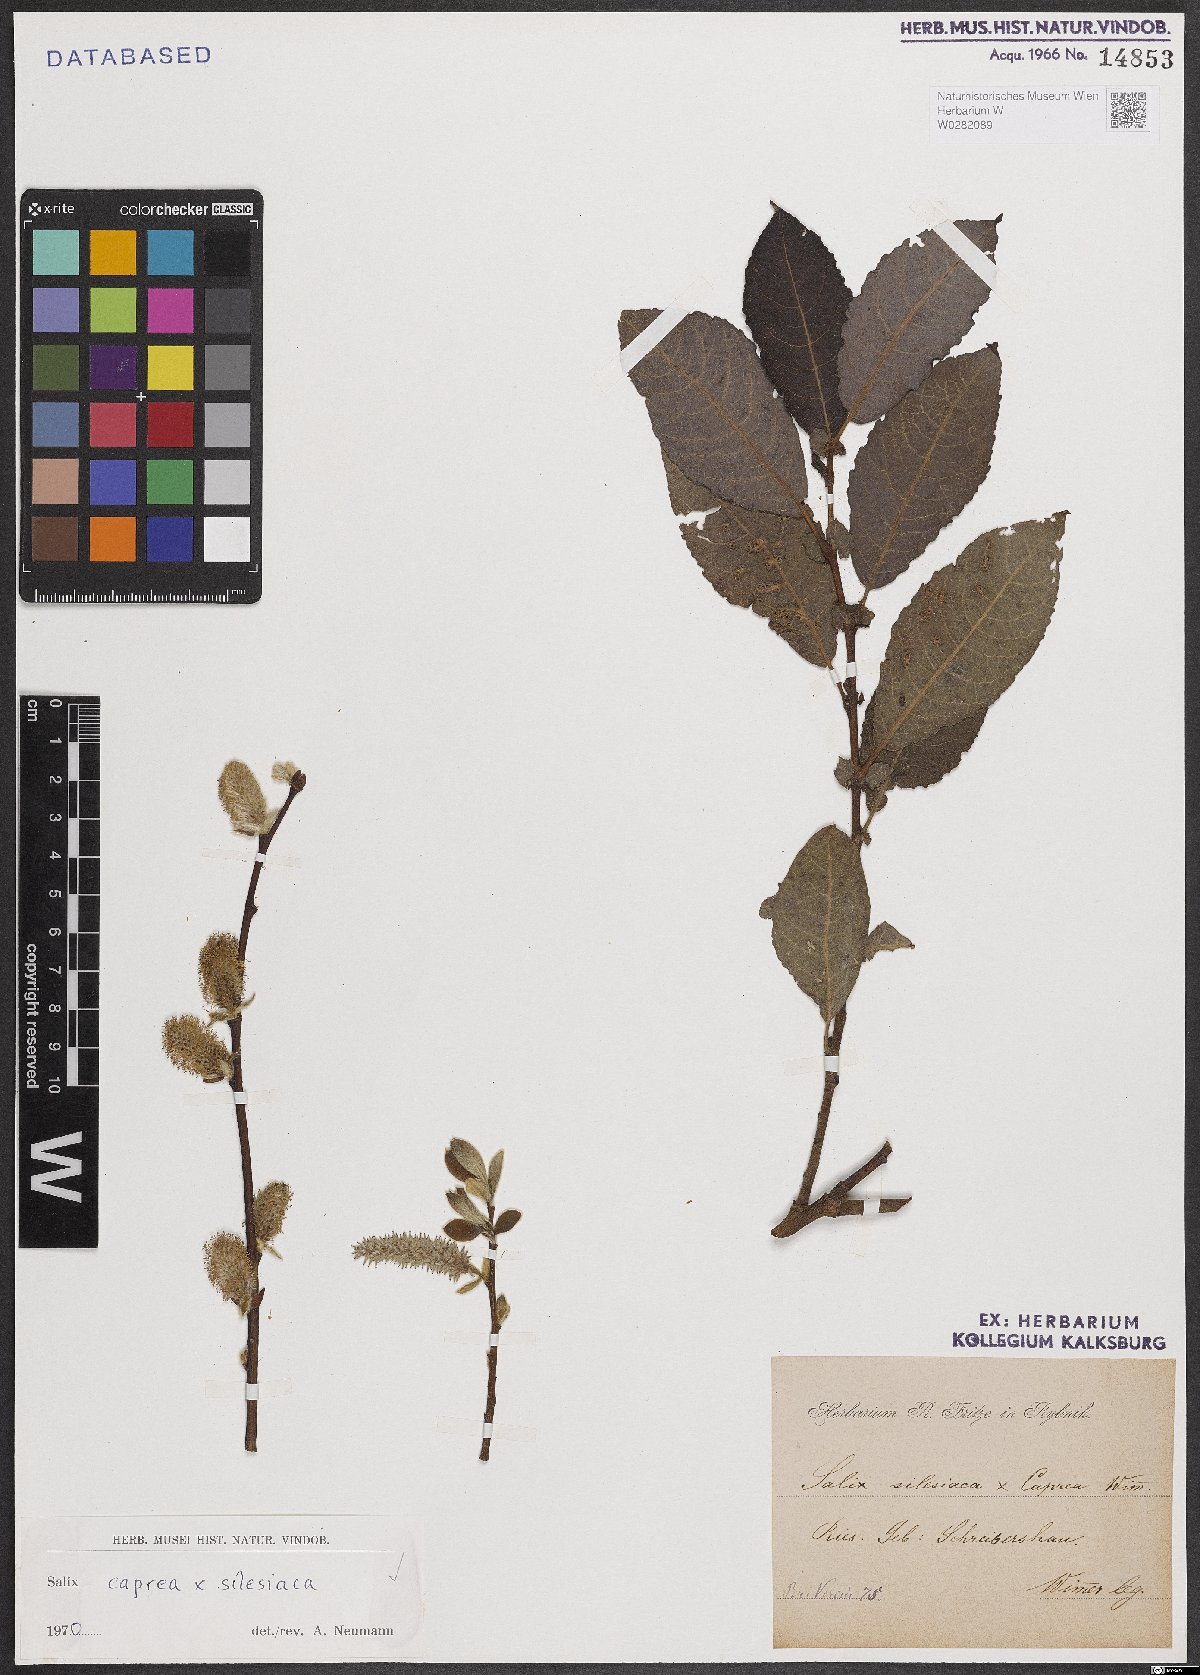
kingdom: Plantae
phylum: Tracheophyta
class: Magnoliopsida
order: Malpighiales
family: Salicaceae
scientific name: Salicaceae
